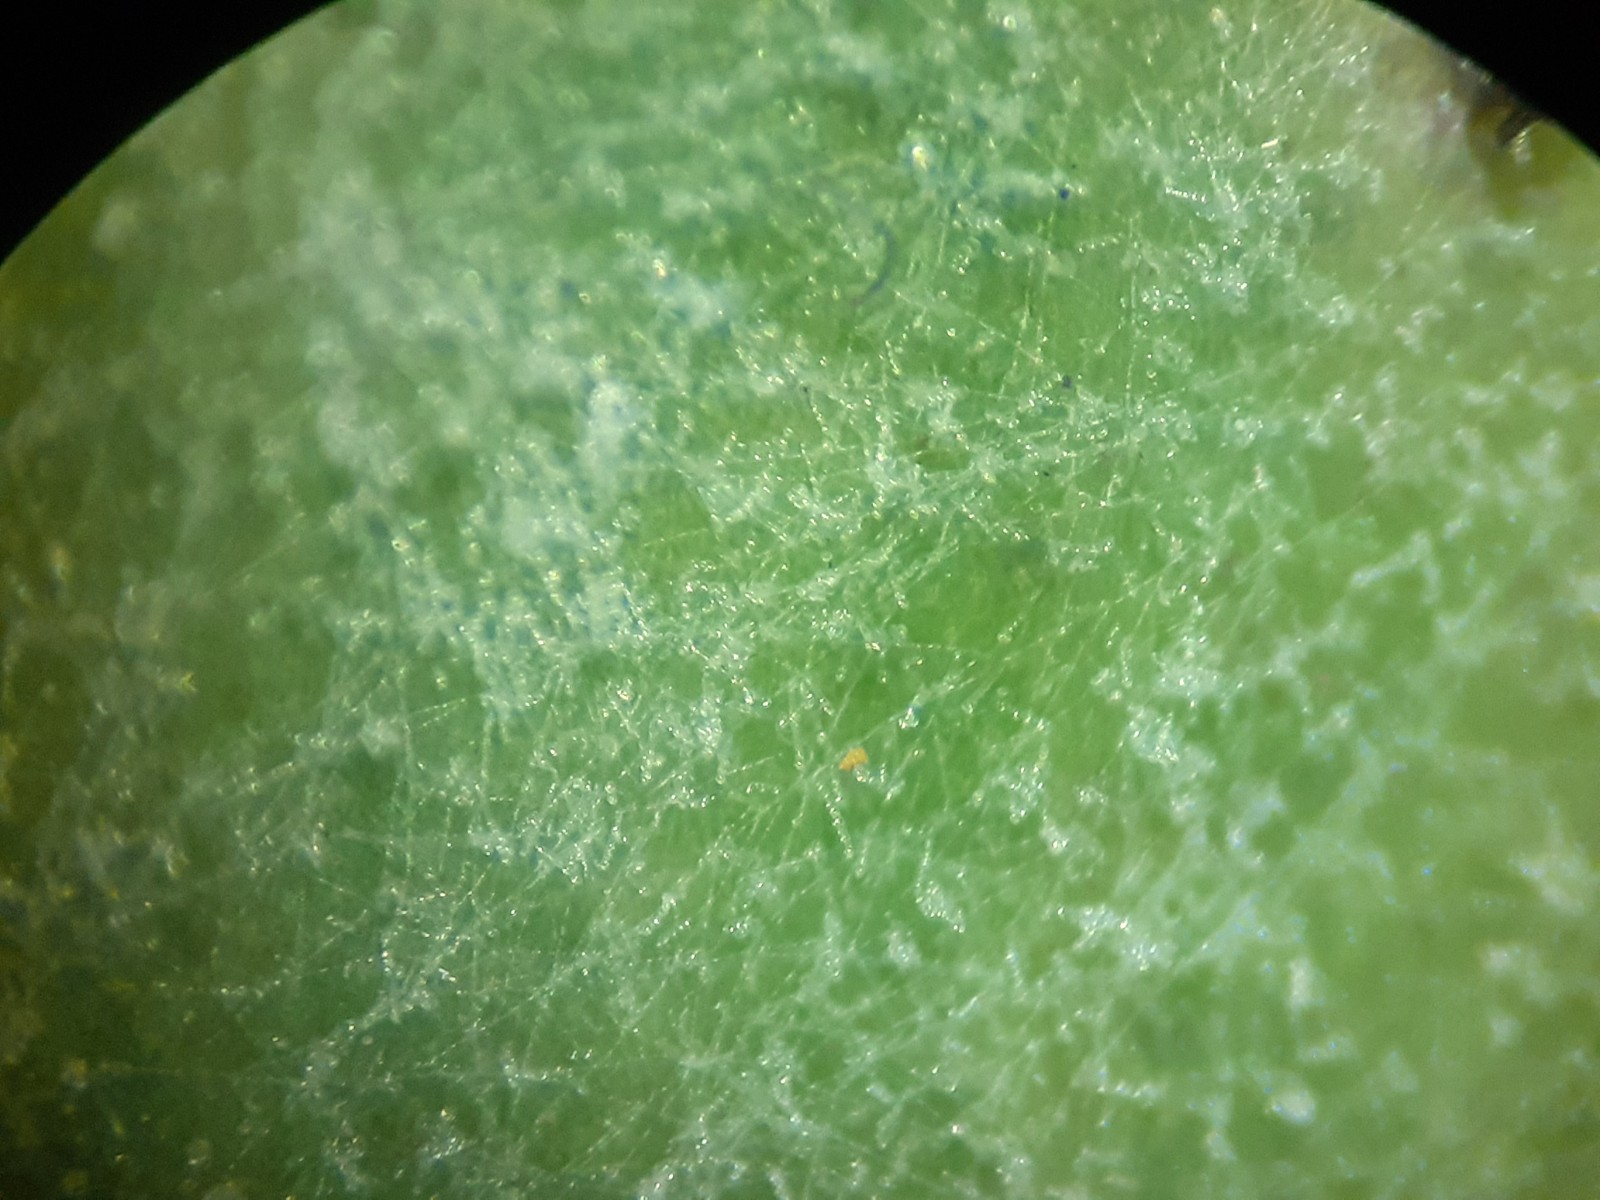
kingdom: Fungi
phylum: Ascomycota
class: Leotiomycetes
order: Helotiales
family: Erysiphaceae
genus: Golovinomyces
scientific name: Golovinomyces
